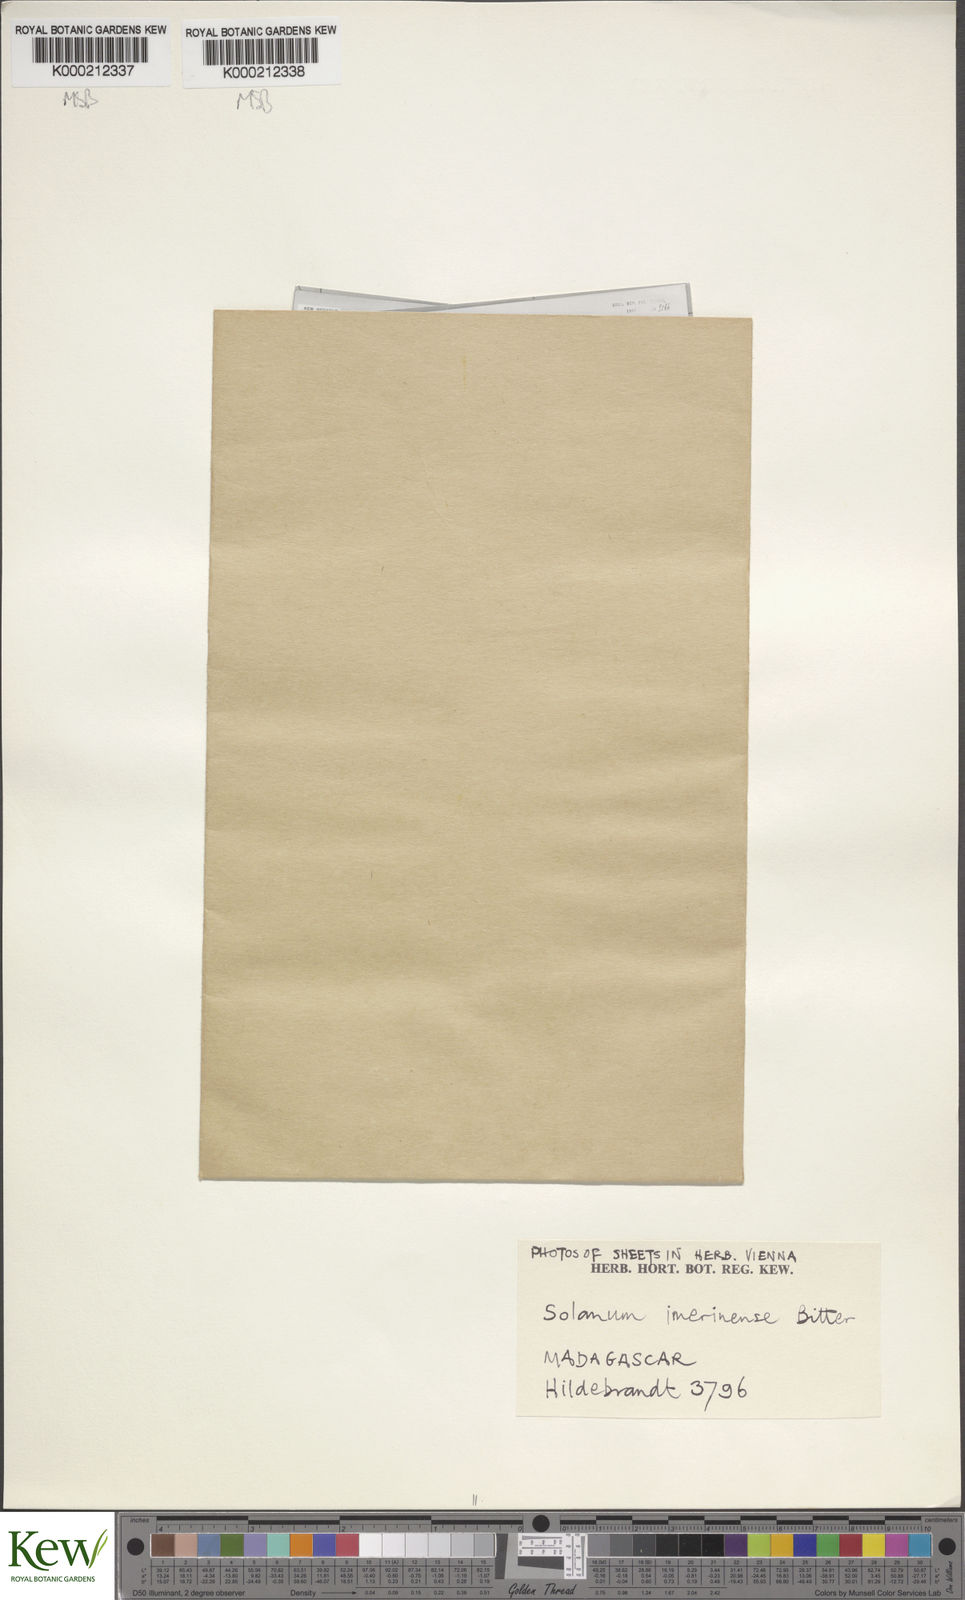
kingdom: Plantae
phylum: Tracheophyta
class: Magnoliopsida
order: Solanales
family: Solanaceae
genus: Solanum
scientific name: Solanum americanum
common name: American black nightshade
